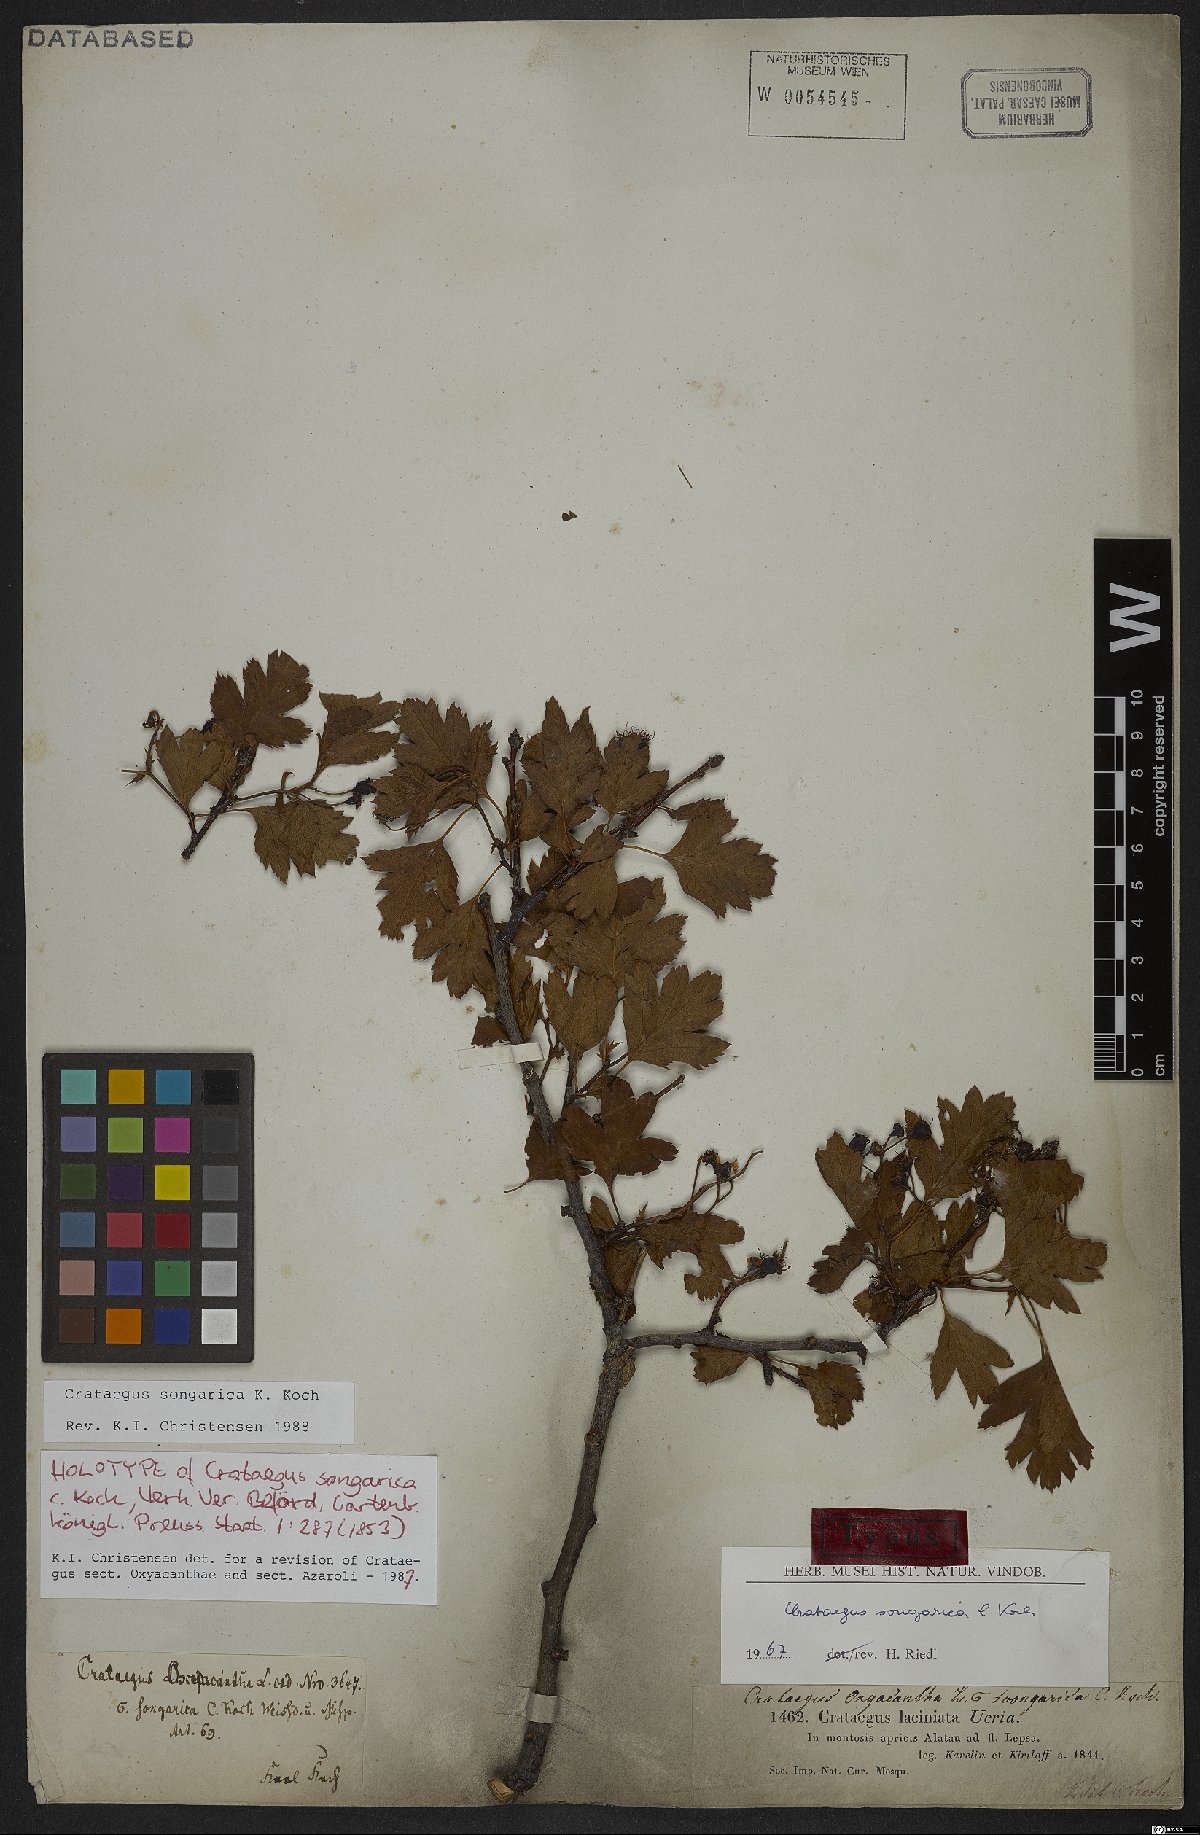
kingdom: Plantae
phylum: Tracheophyta
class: Magnoliopsida
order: Rosales
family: Rosaceae
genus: Crataegus
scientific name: Crataegus songarica
